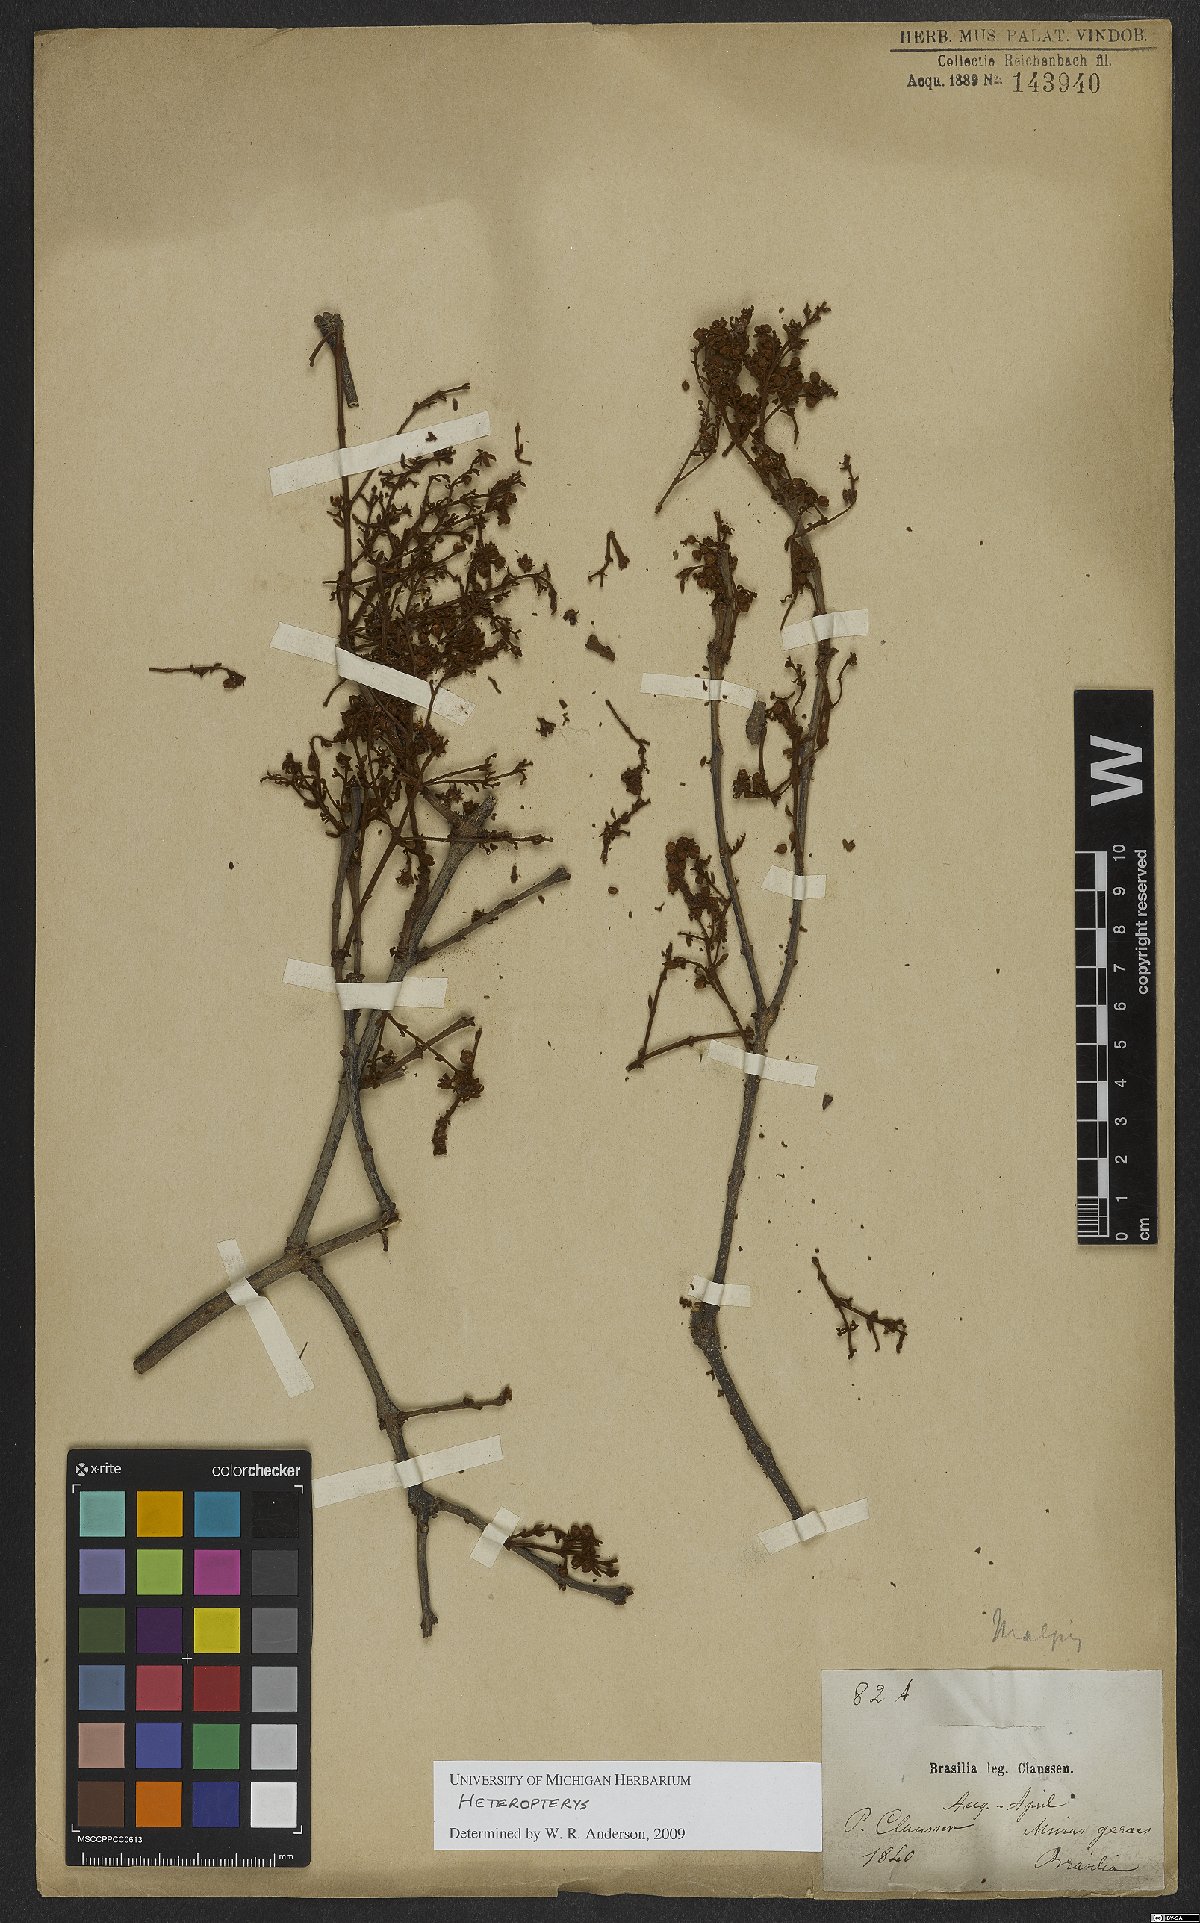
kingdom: Plantae
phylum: Tracheophyta
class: Magnoliopsida
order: Malpighiales
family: Malpighiaceae
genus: Heteropterys
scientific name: Heteropterys
